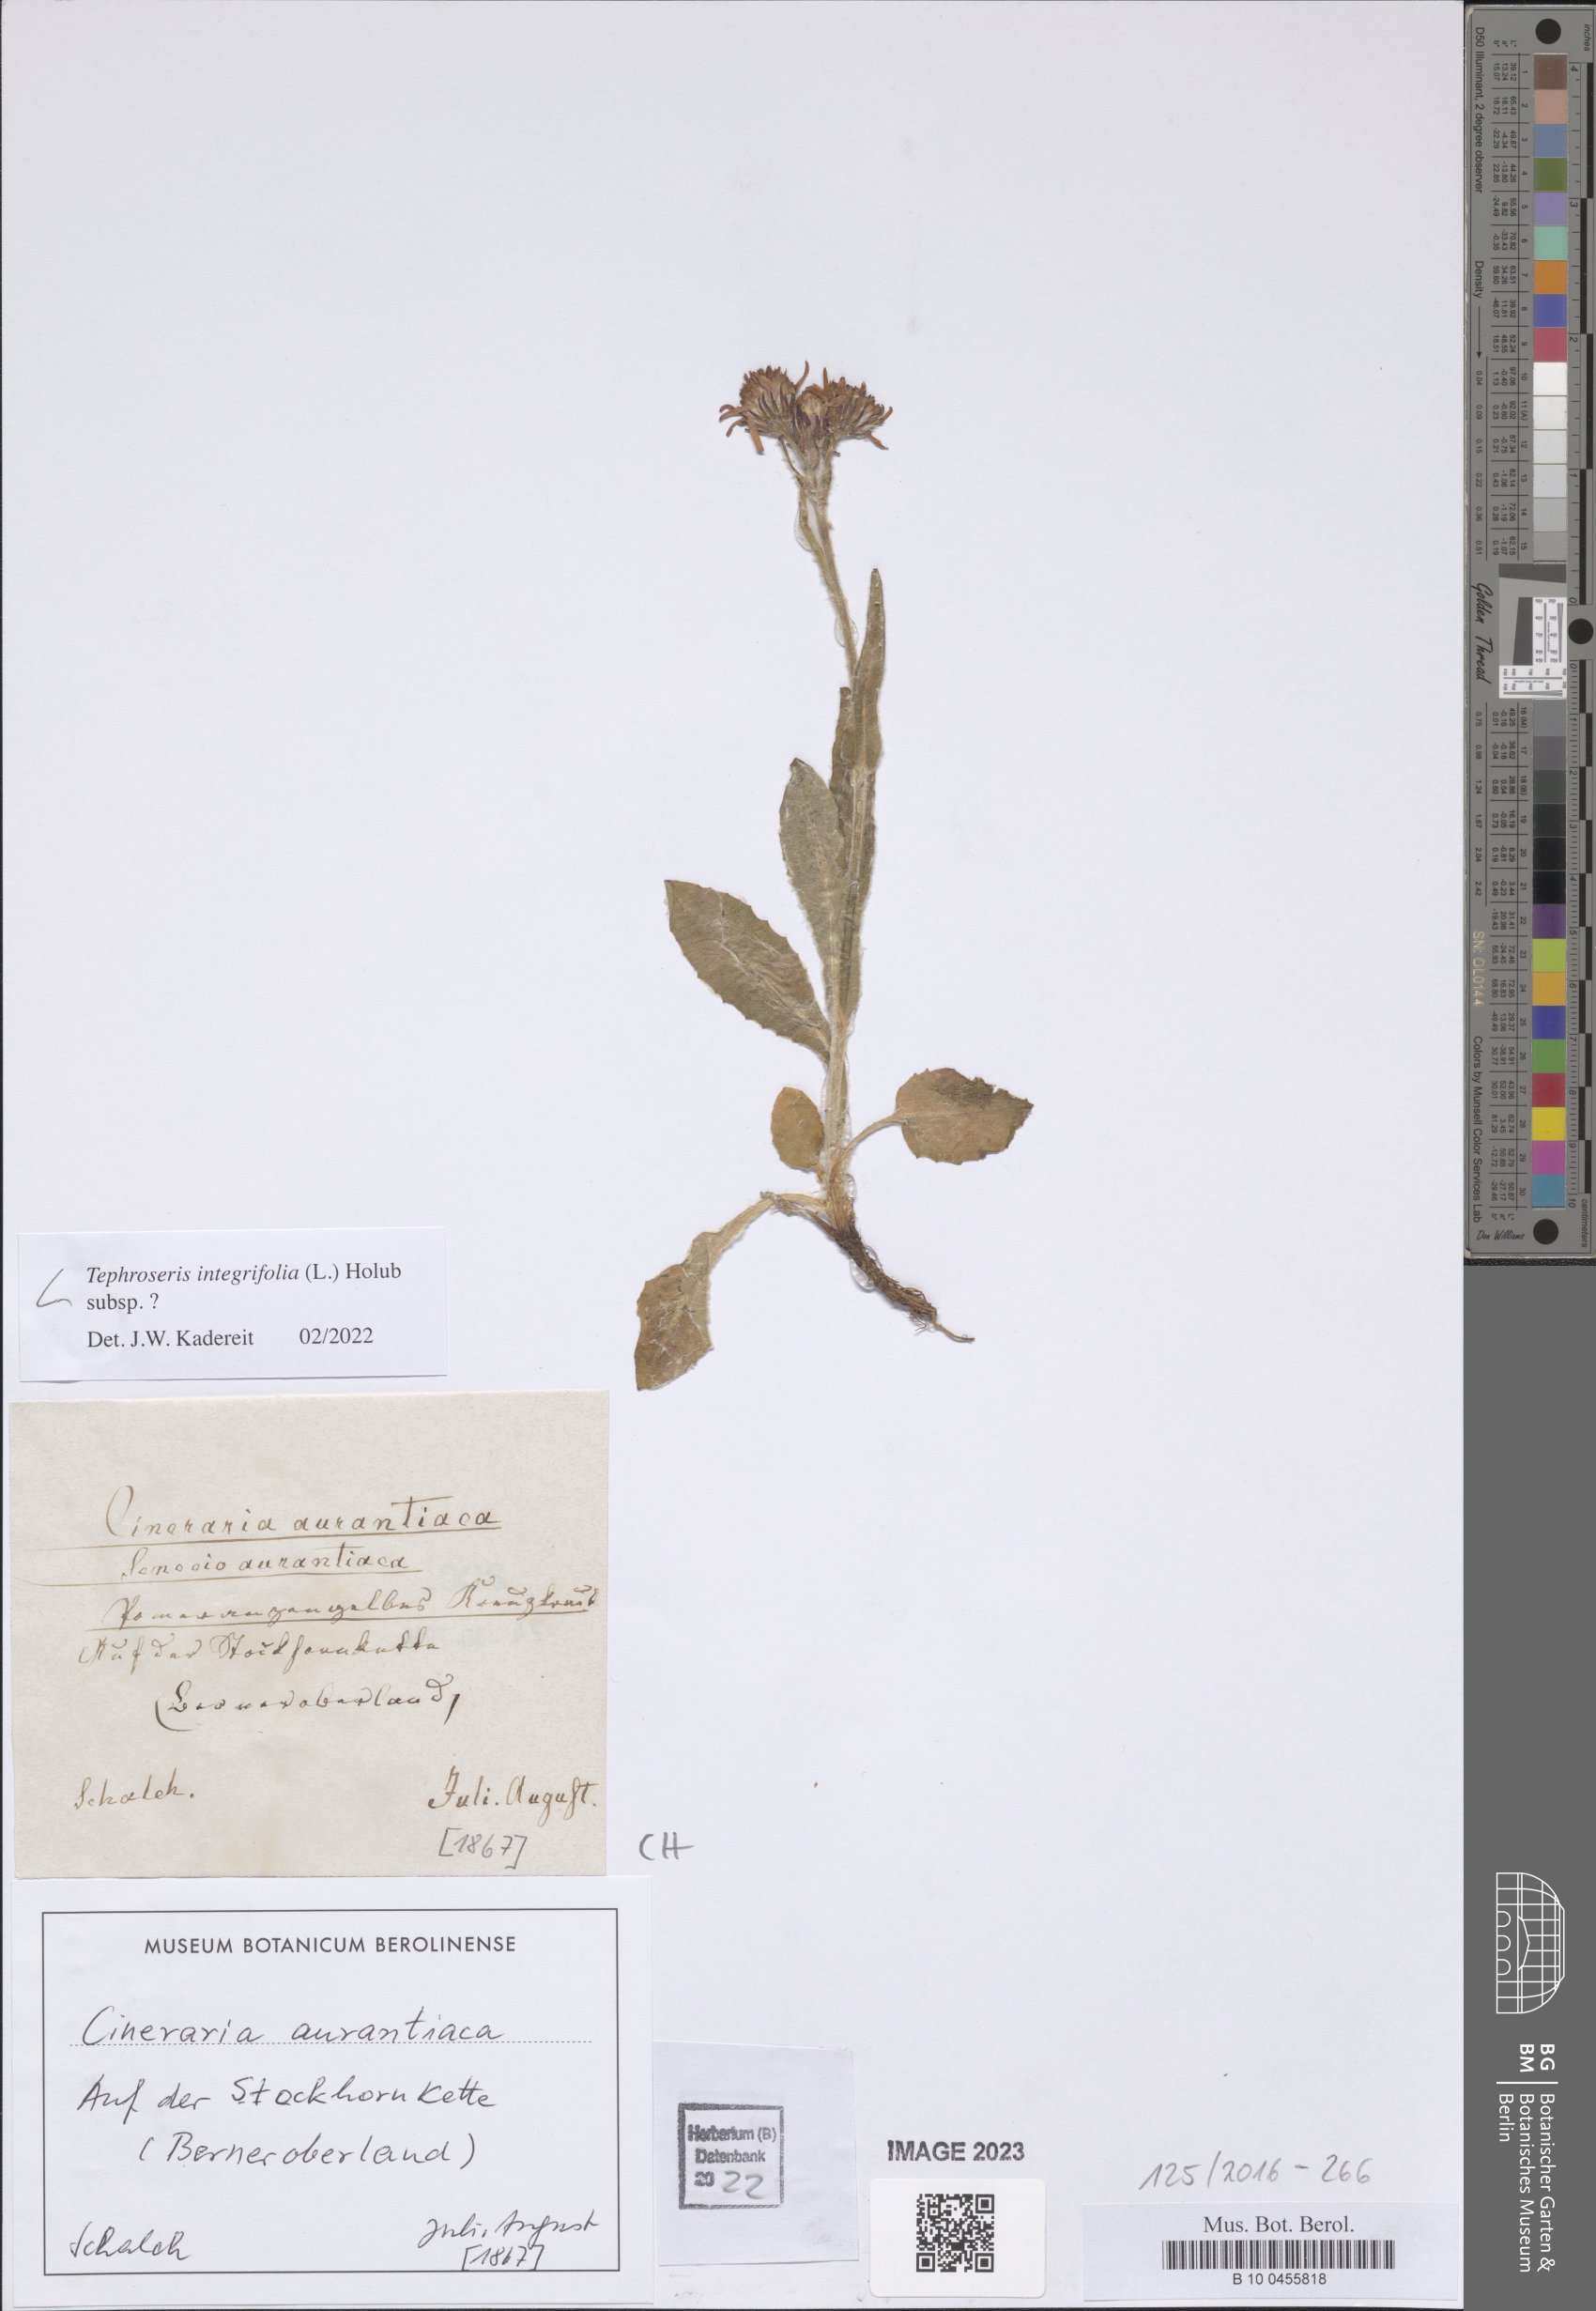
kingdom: Plantae
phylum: Tracheophyta
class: Magnoliopsida
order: Asterales
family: Asteraceae
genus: Tephroseris
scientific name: Tephroseris integrifolia
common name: Field fleawort
